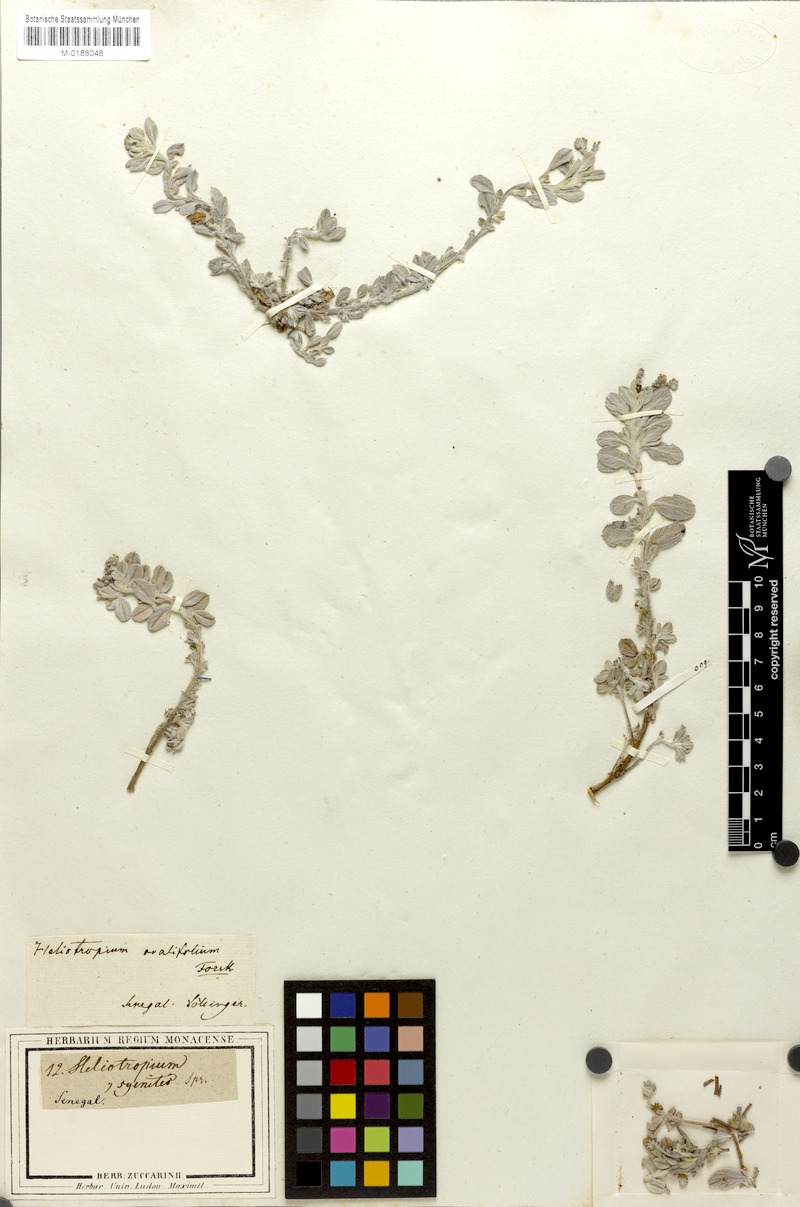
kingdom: Plantae
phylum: Tracheophyta
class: Magnoliopsida
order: Boraginales
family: Heliotropiaceae
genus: Euploca
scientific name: Euploca ovalifolia
